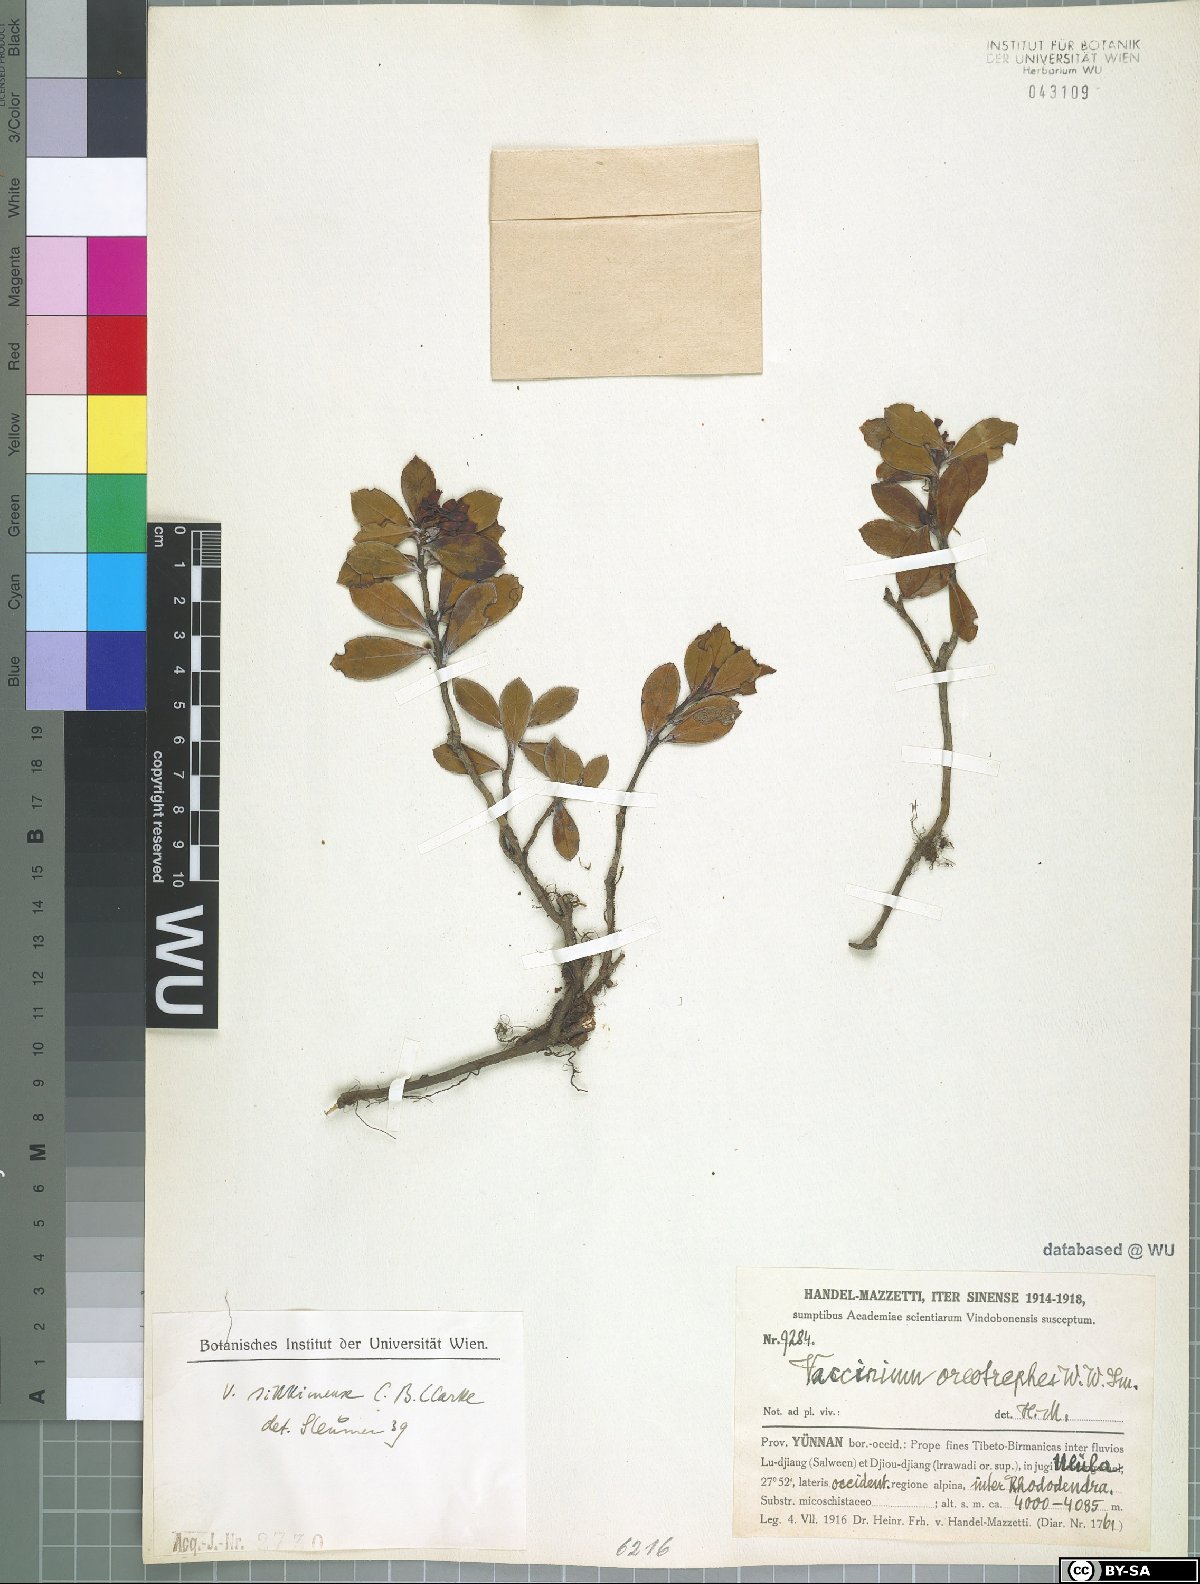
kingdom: Plantae
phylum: Tracheophyta
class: Magnoliopsida
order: Ericales
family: Ericaceae
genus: Vaccinium
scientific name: Vaccinium sikkimense
